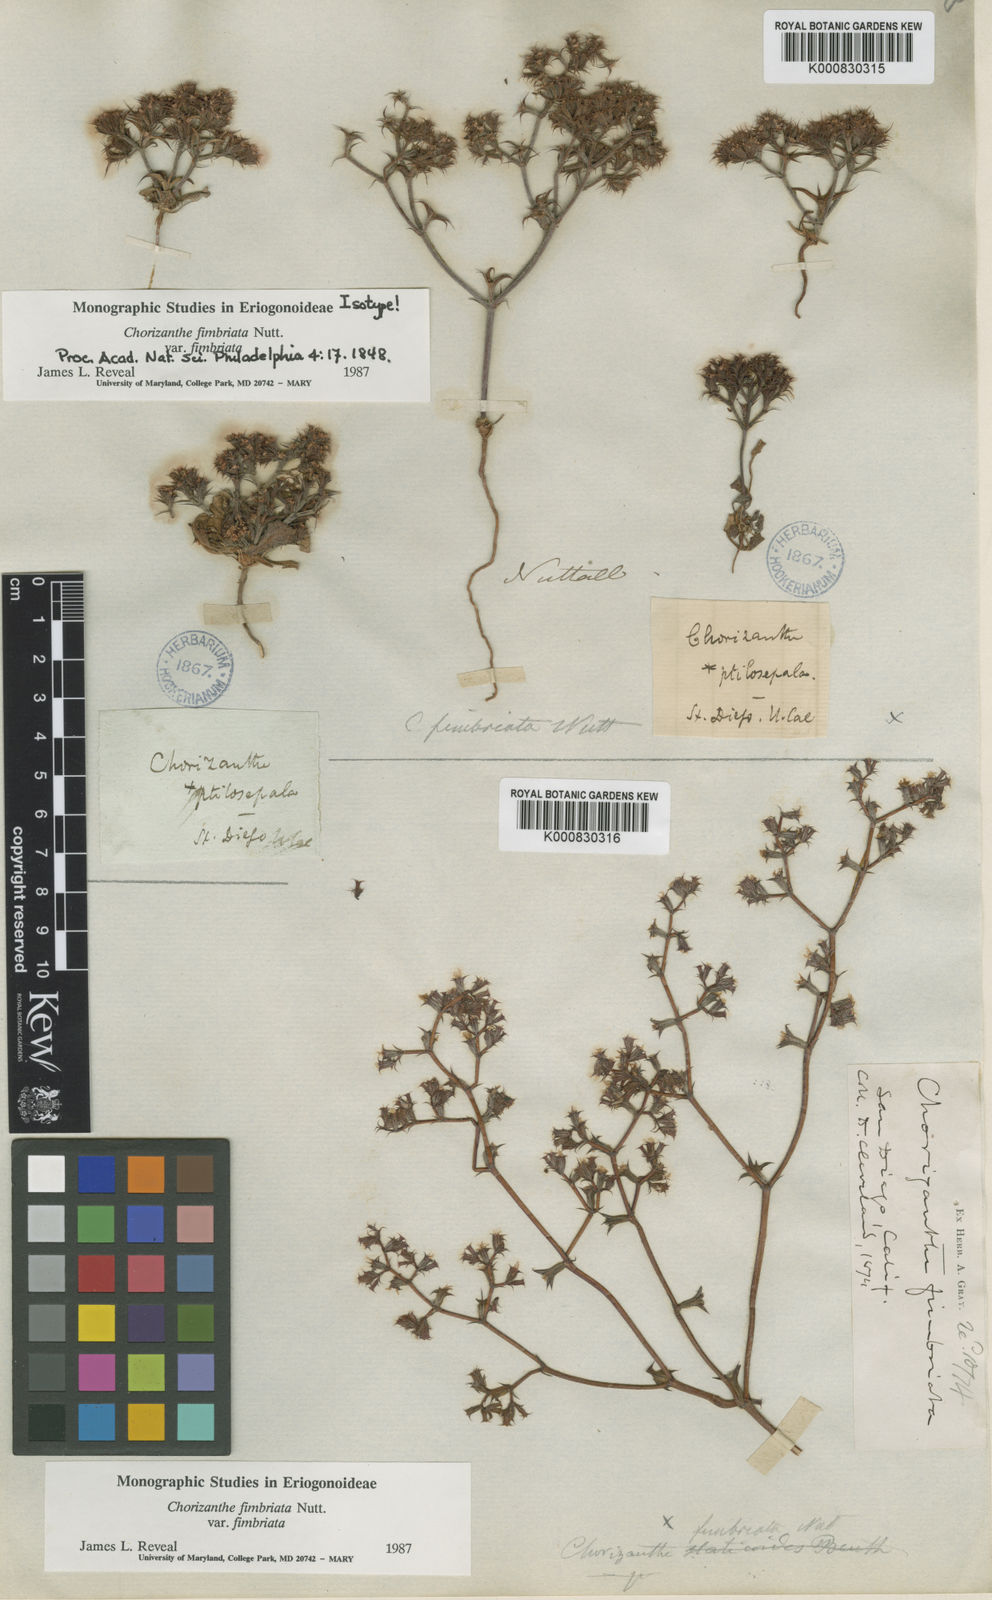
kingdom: Plantae
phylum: Tracheophyta
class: Magnoliopsida
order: Caryophyllales
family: Polygonaceae
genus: Chorizanthe
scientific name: Chorizanthe fimbriata
